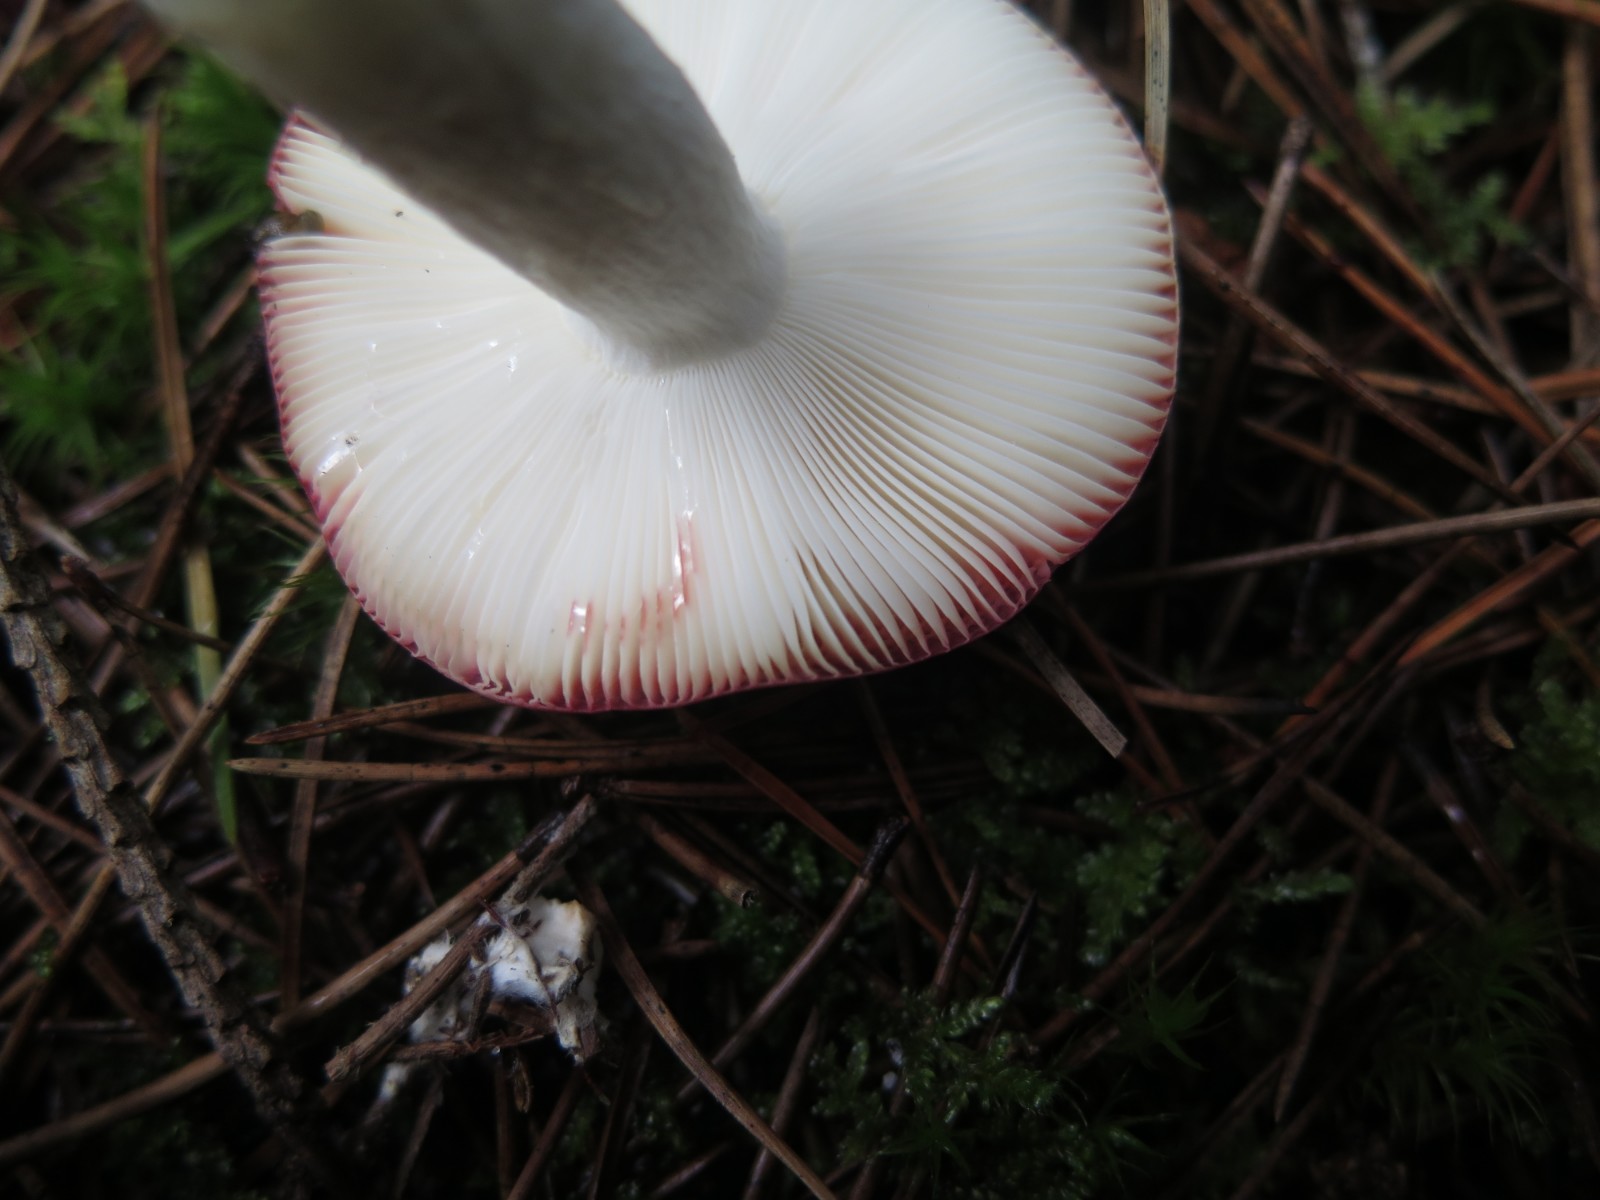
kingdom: Fungi
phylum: Basidiomycota
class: Agaricomycetes
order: Russulales
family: Russulaceae
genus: Russula
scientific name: Russula velenovskyi
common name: orangerød skørhat
